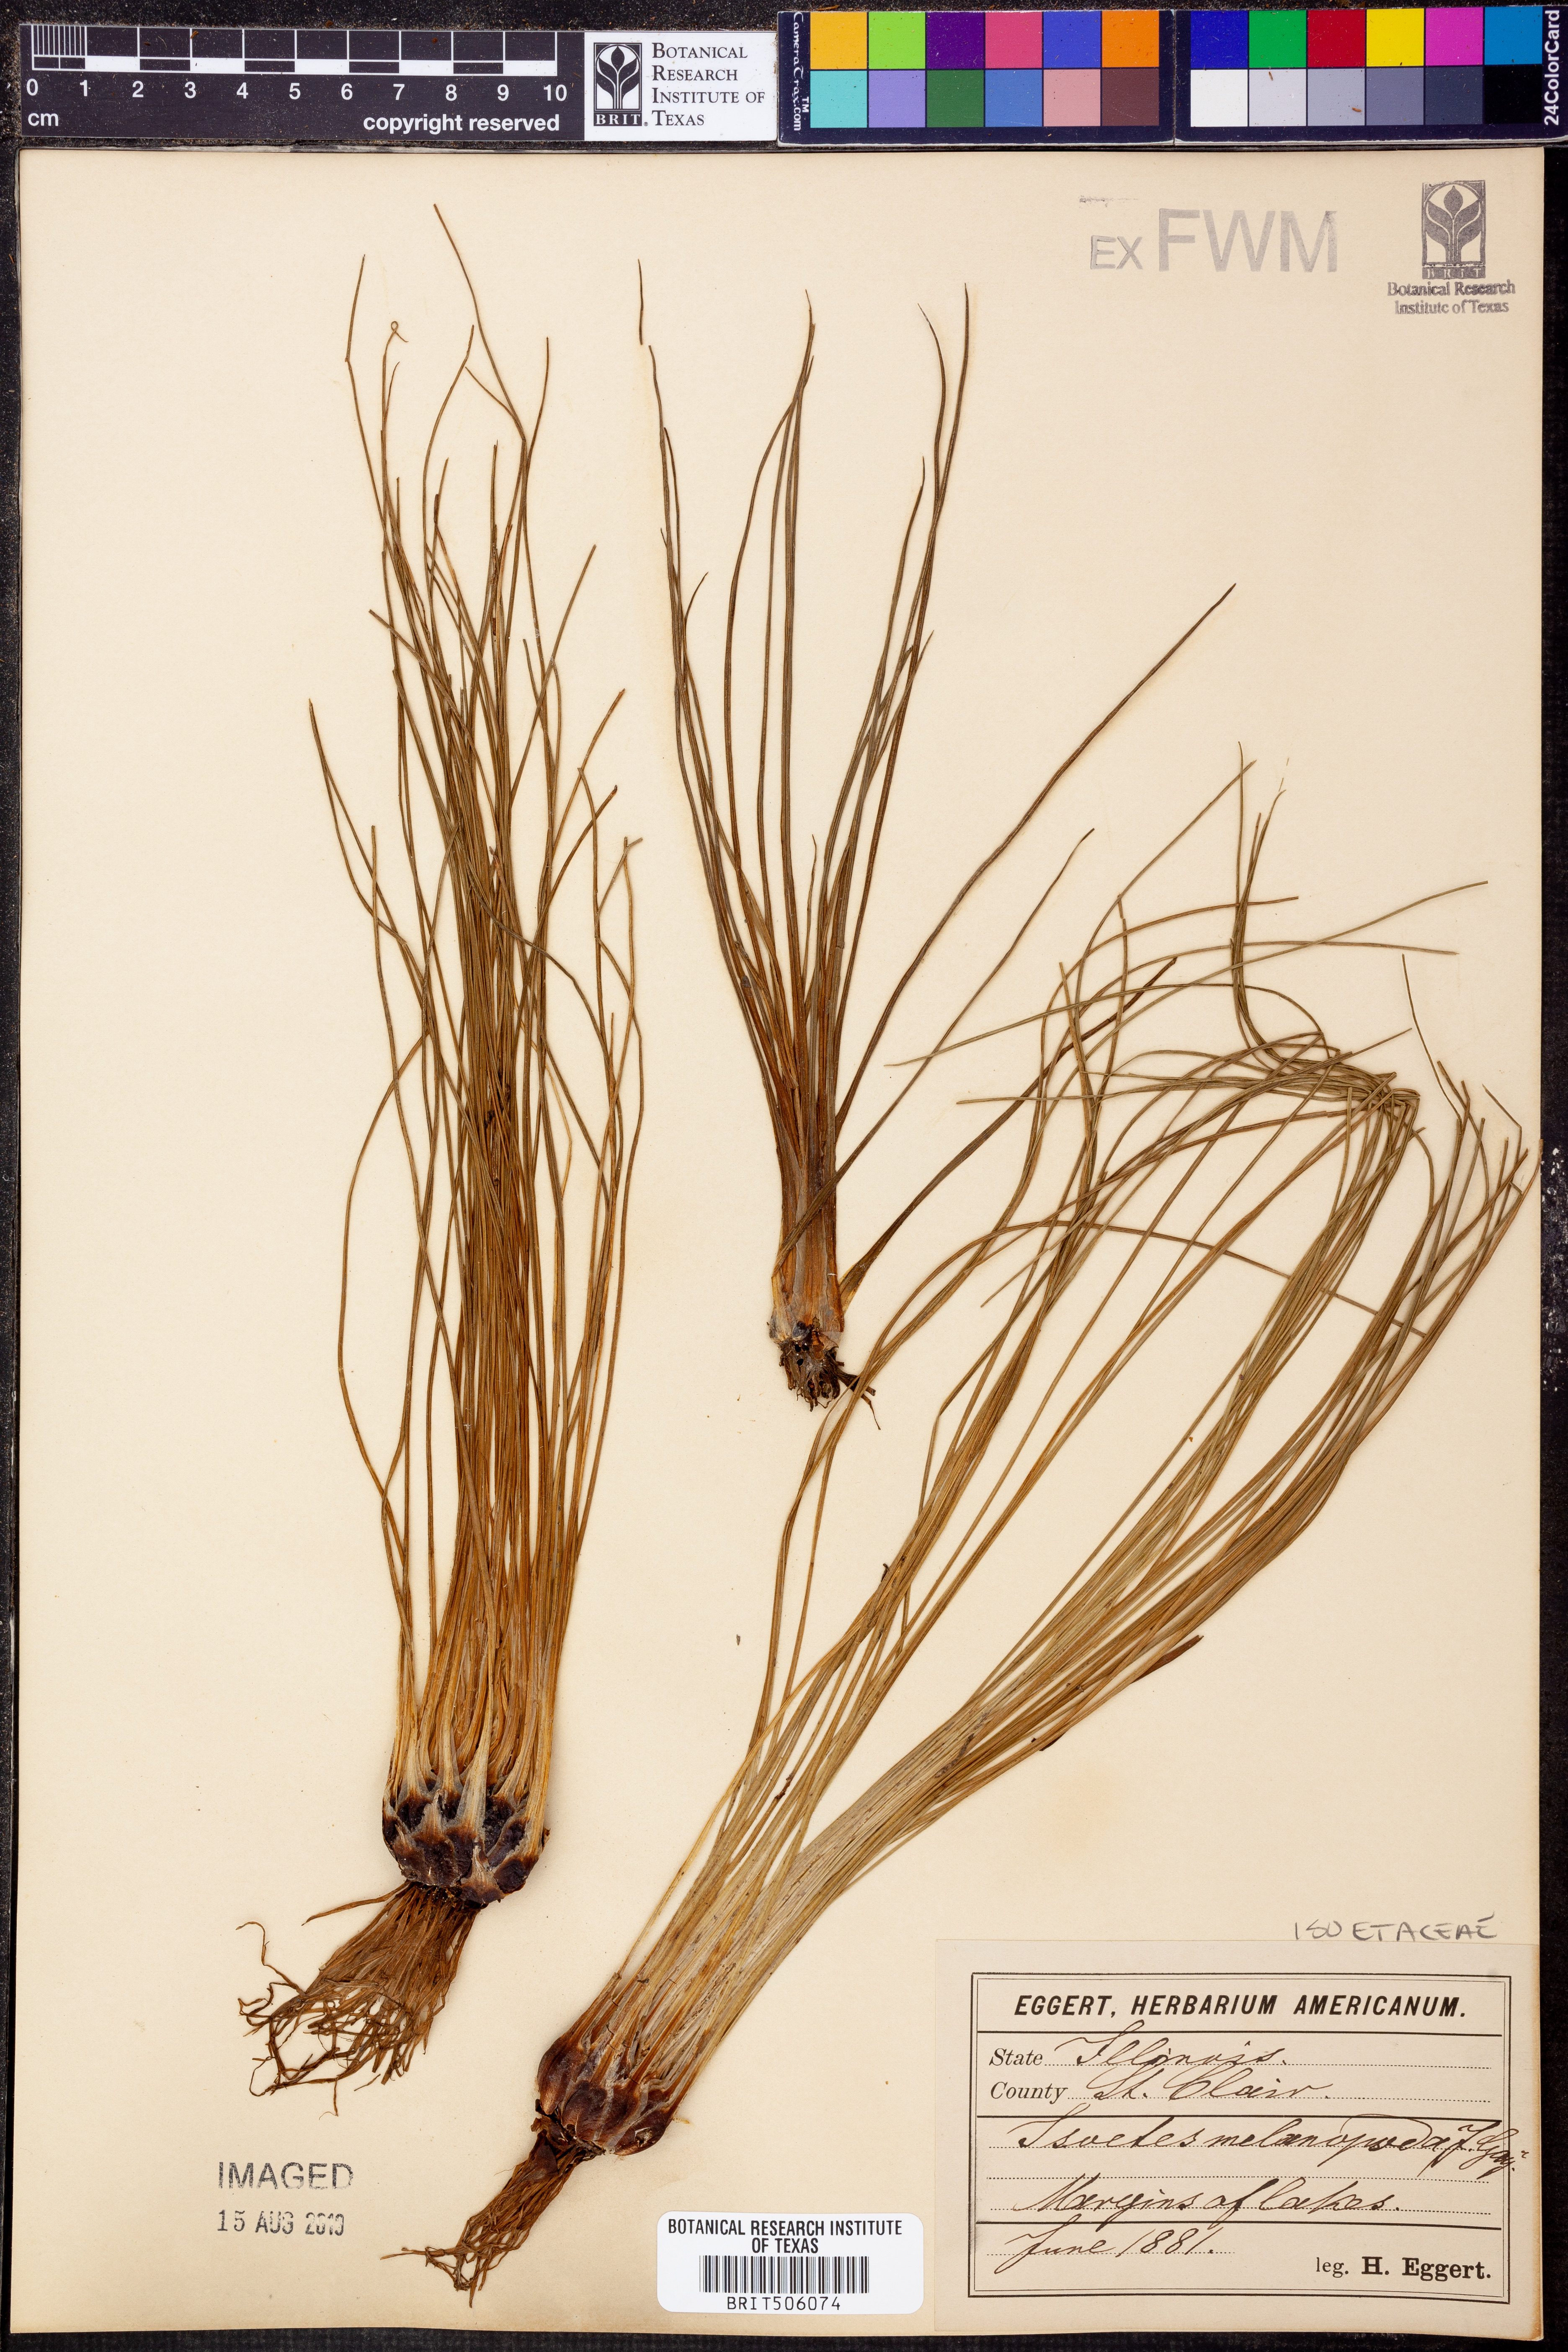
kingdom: Plantae
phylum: Tracheophyta
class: Lycopodiopsida
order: Isoetales
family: Isoetaceae
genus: Isoetes
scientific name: Isoetes melanopoda
